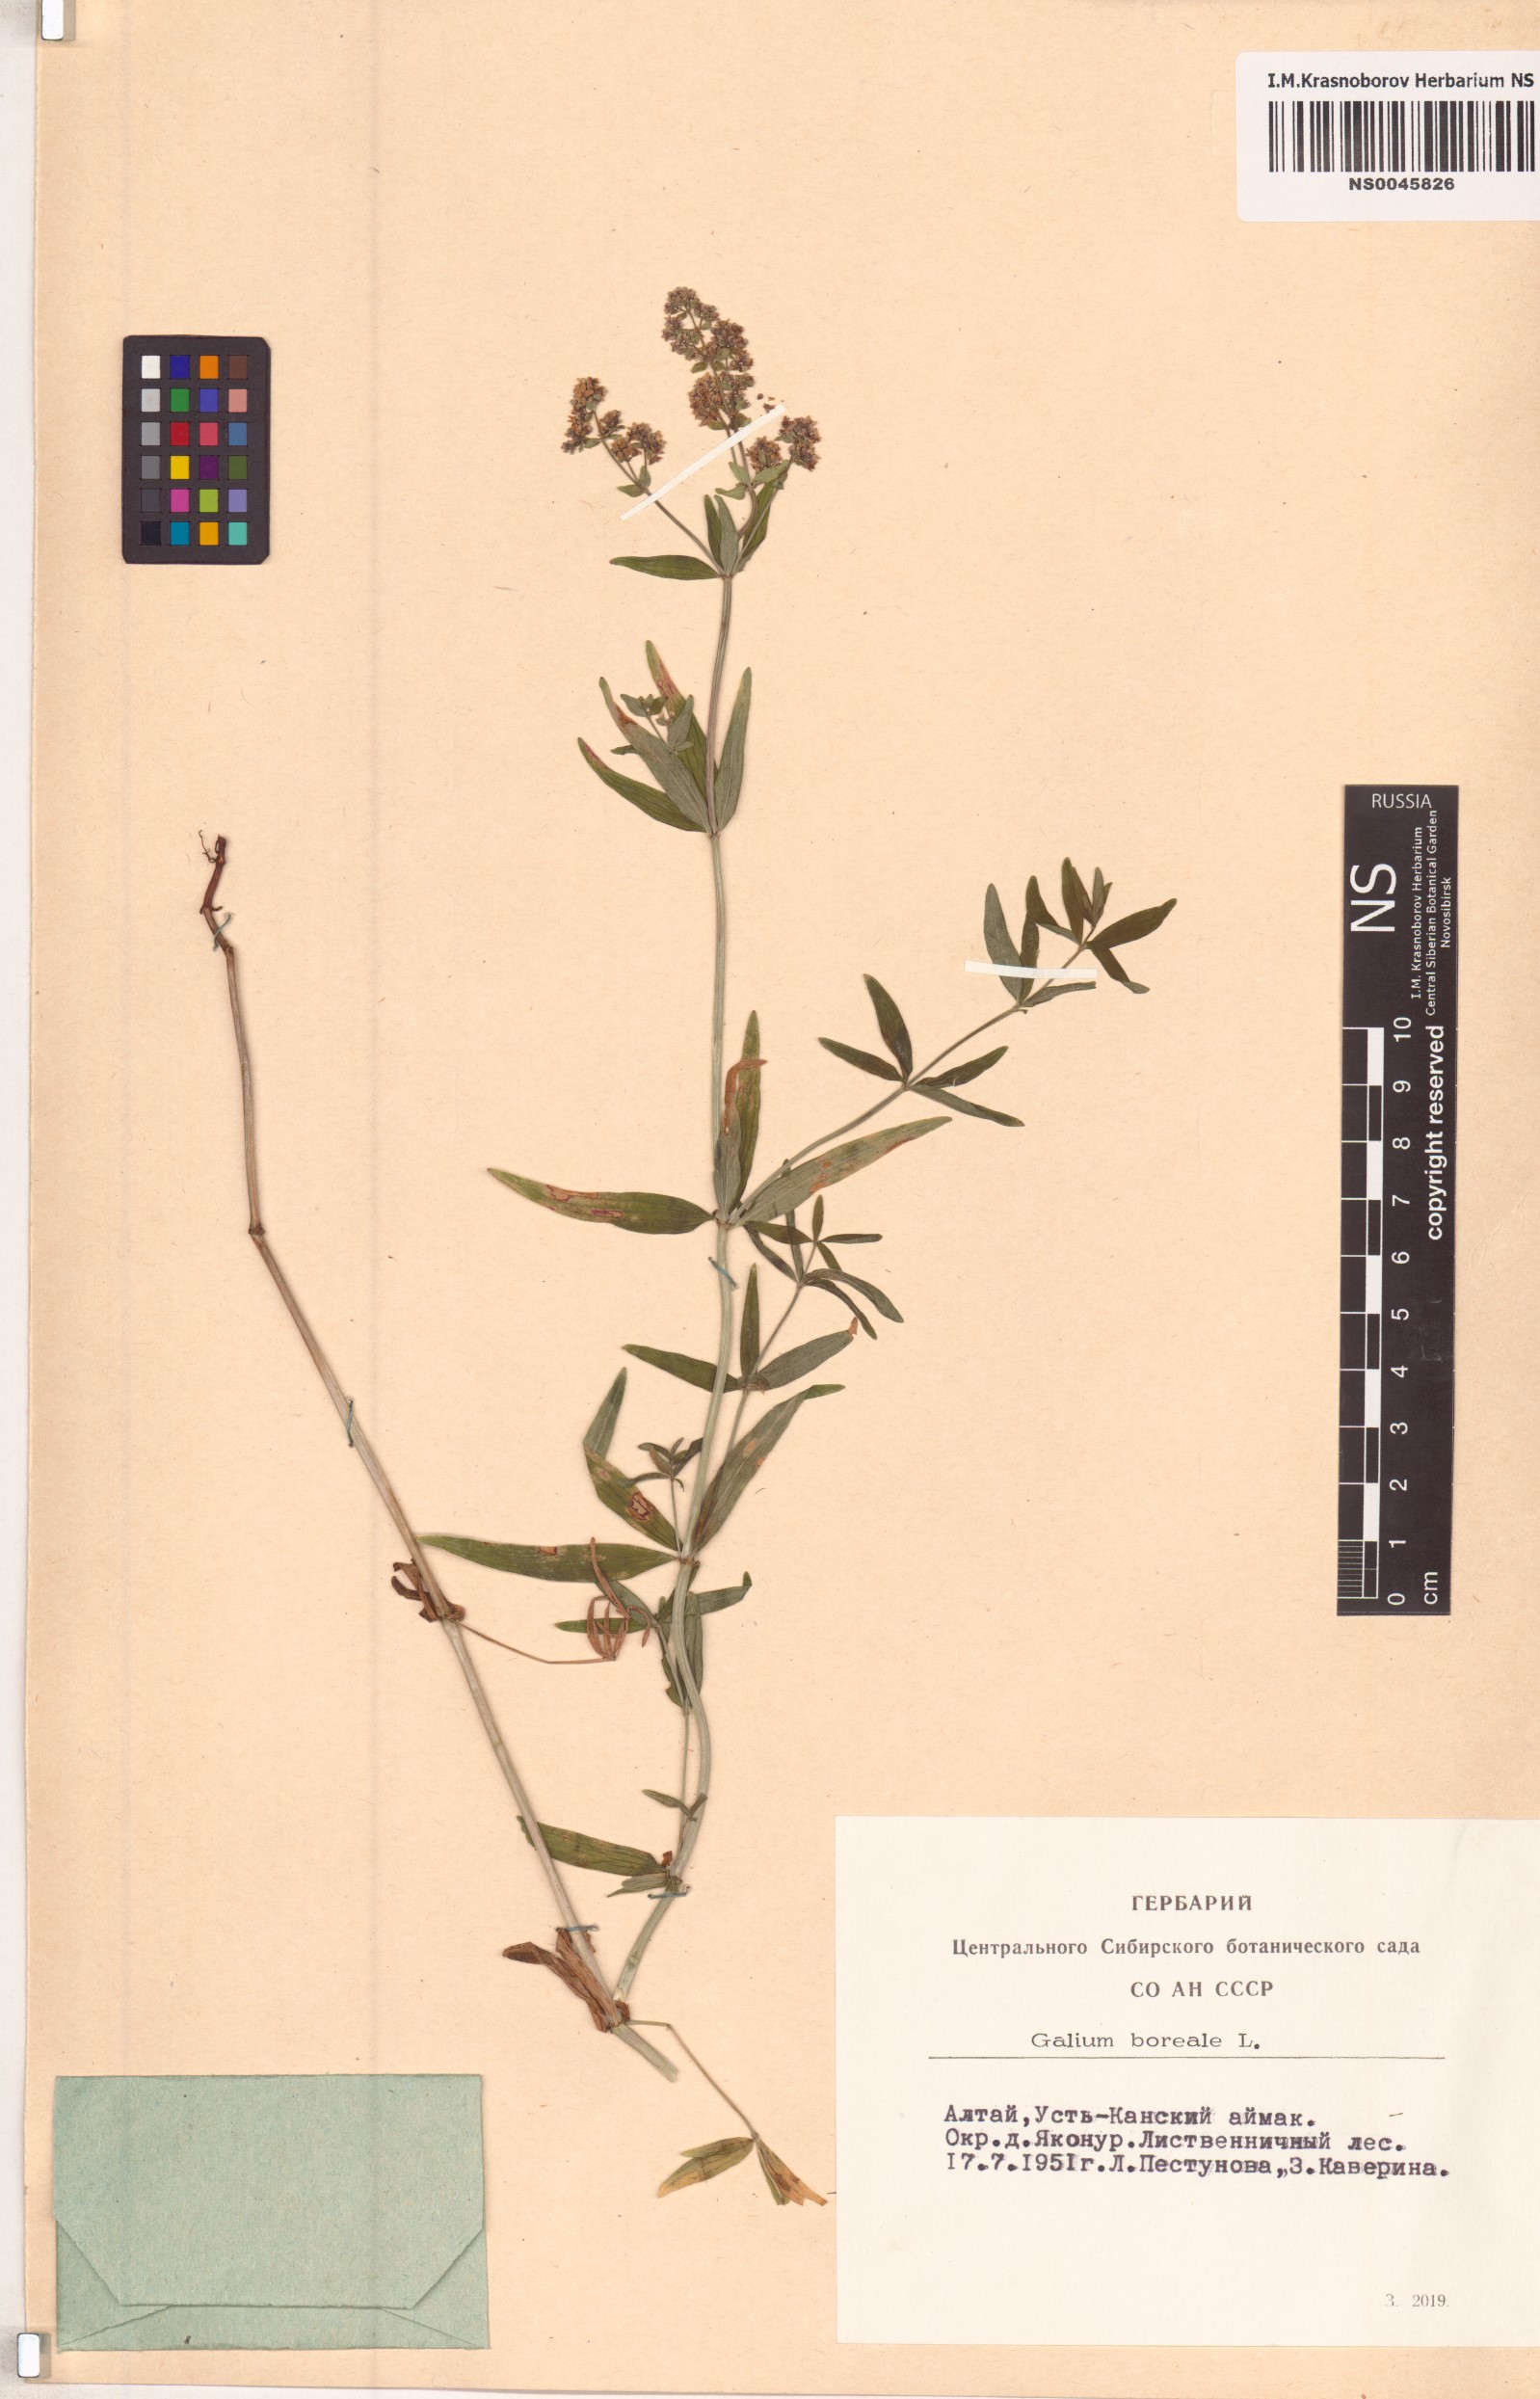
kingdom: Plantae
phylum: Tracheophyta
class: Magnoliopsida
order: Gentianales
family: Rubiaceae
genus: Galium
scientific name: Galium boreale
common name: Northern bedstraw
